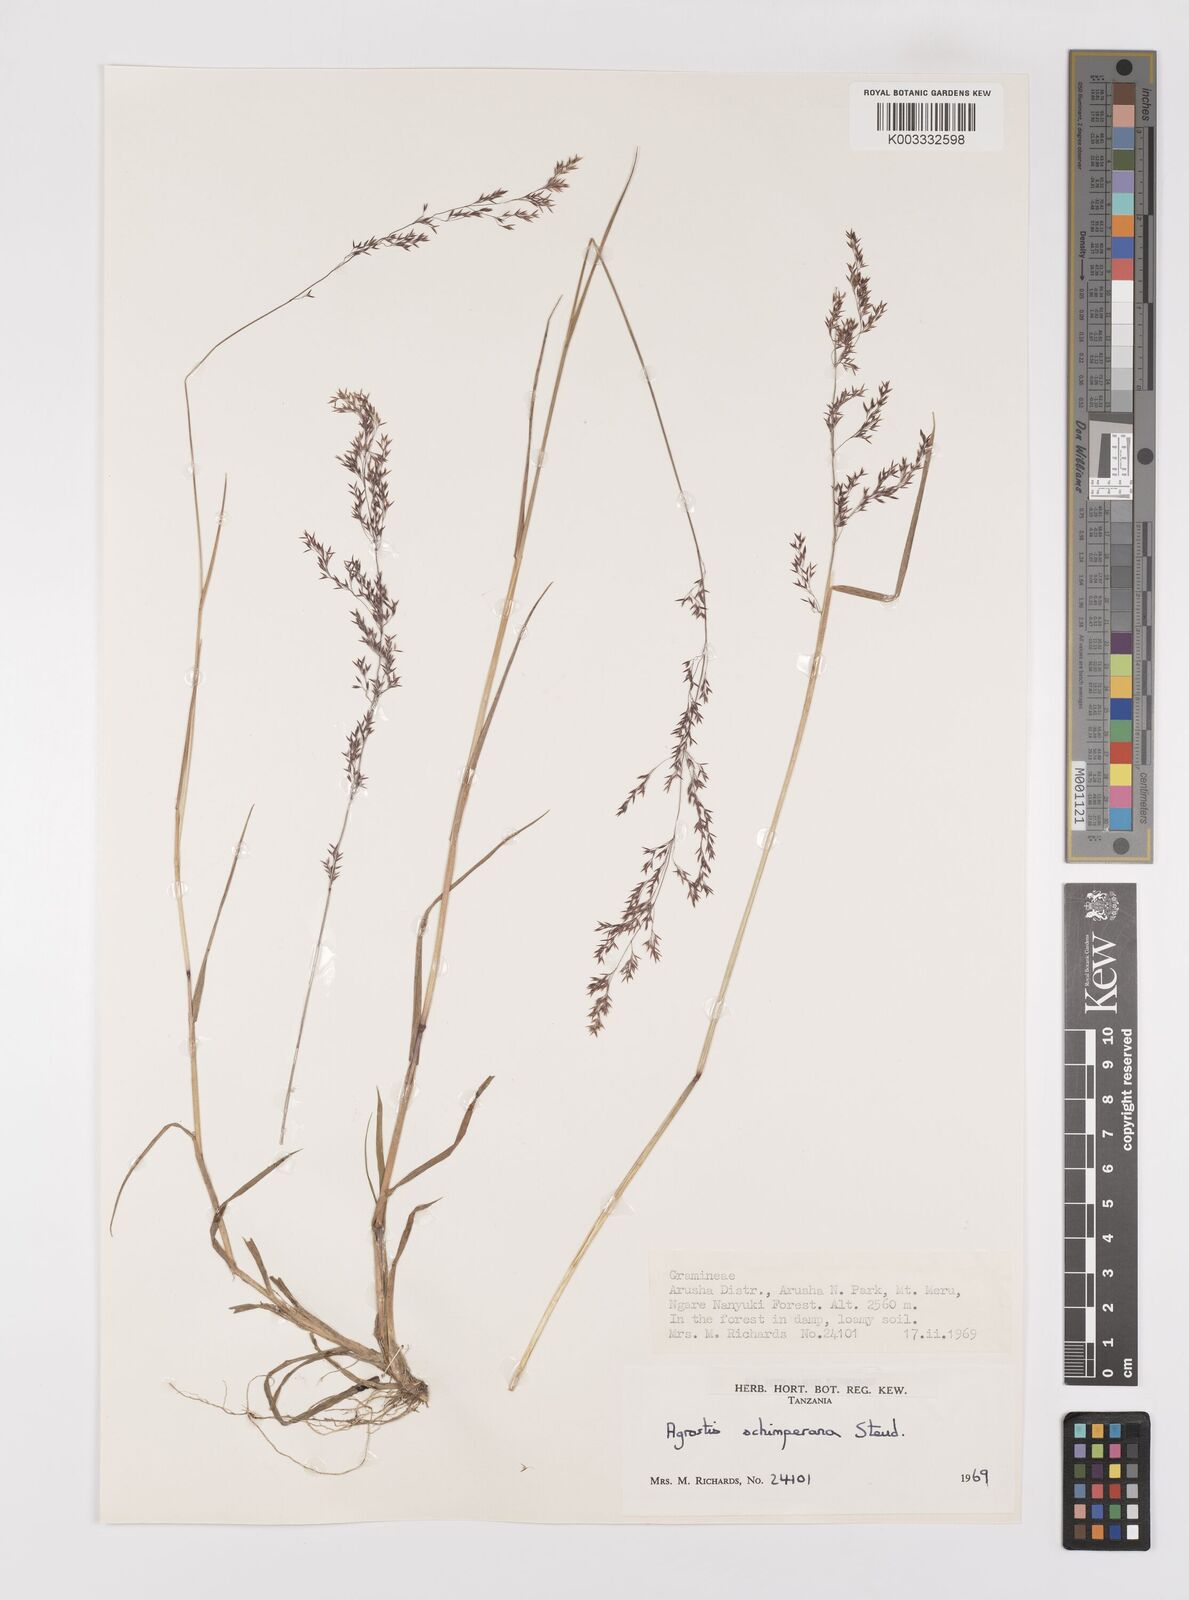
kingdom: Plantae
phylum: Tracheophyta
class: Liliopsida
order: Poales
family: Poaceae
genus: Polypogon
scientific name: Polypogon schimperianus
